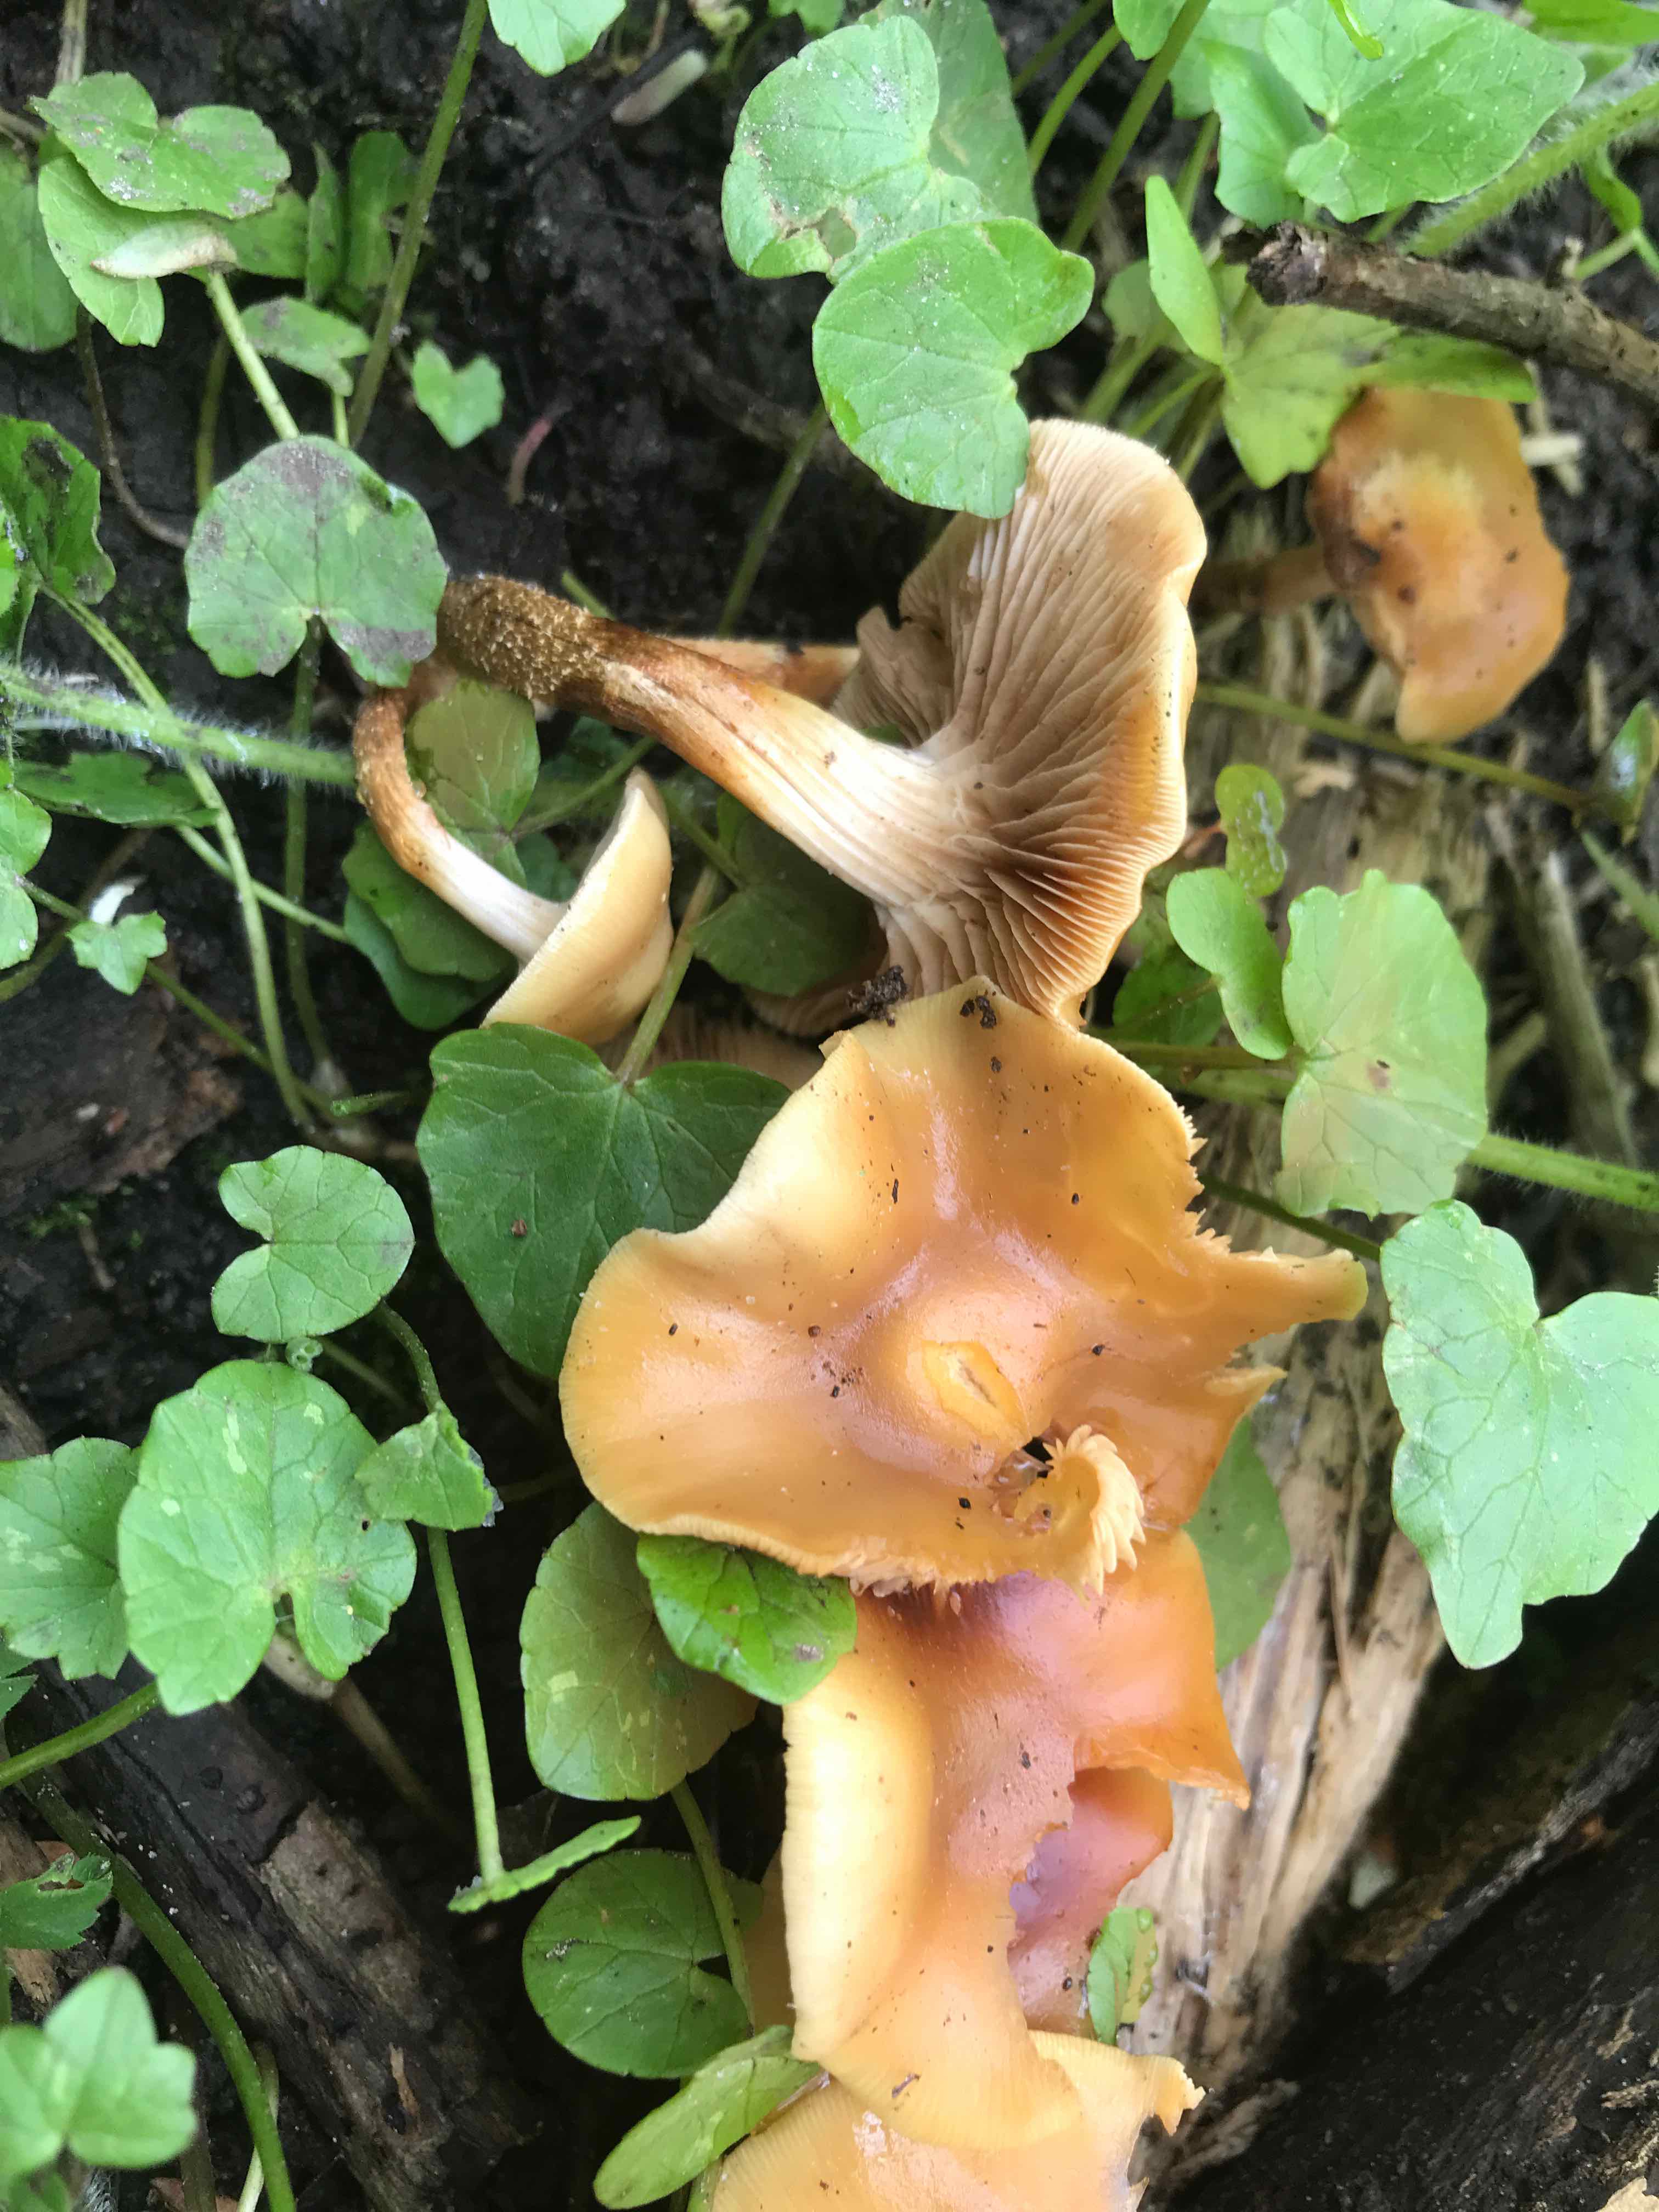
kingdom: Fungi
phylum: Basidiomycota
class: Agaricomycetes
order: Agaricales
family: Strophariaceae
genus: Kuehneromyces
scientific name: Kuehneromyces mutabilis
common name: foranderlig skælhat
